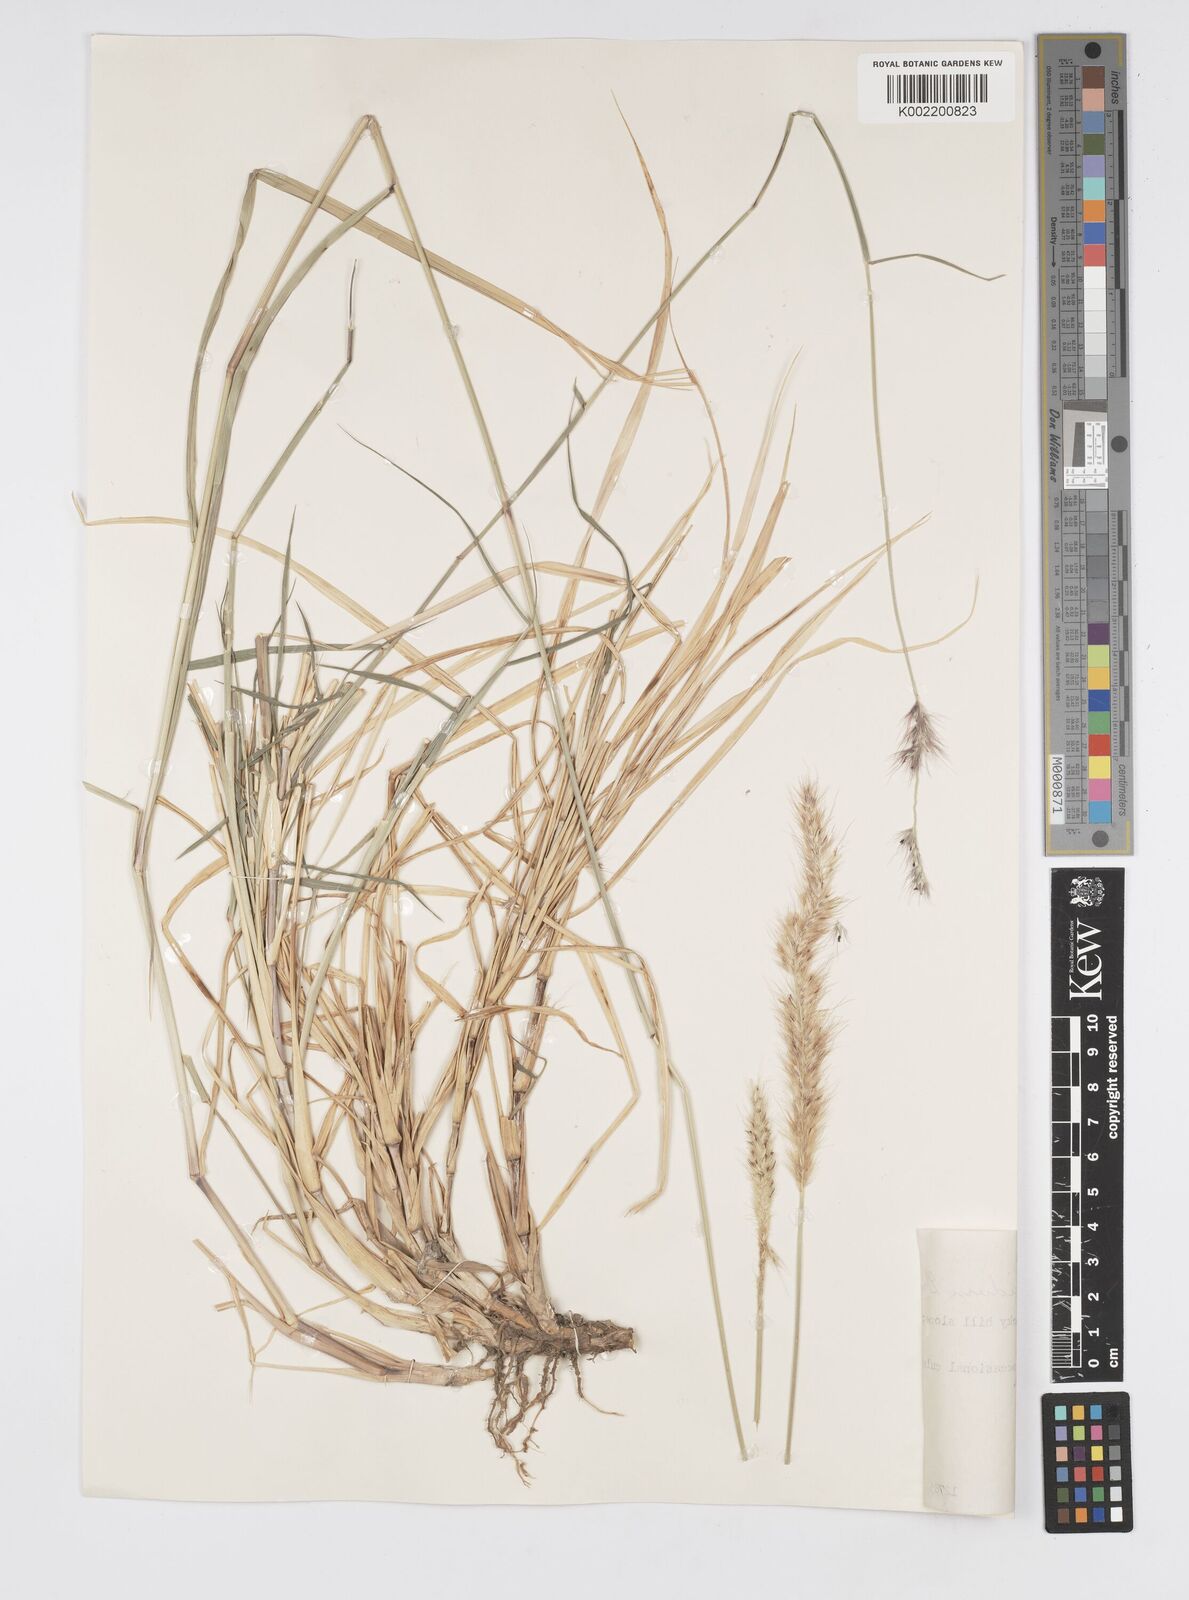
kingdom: Plantae
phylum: Tracheophyta
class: Liliopsida
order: Poales
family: Poaceae
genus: Cenchrus
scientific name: Cenchrus flaccidus
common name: Flaccid grass
